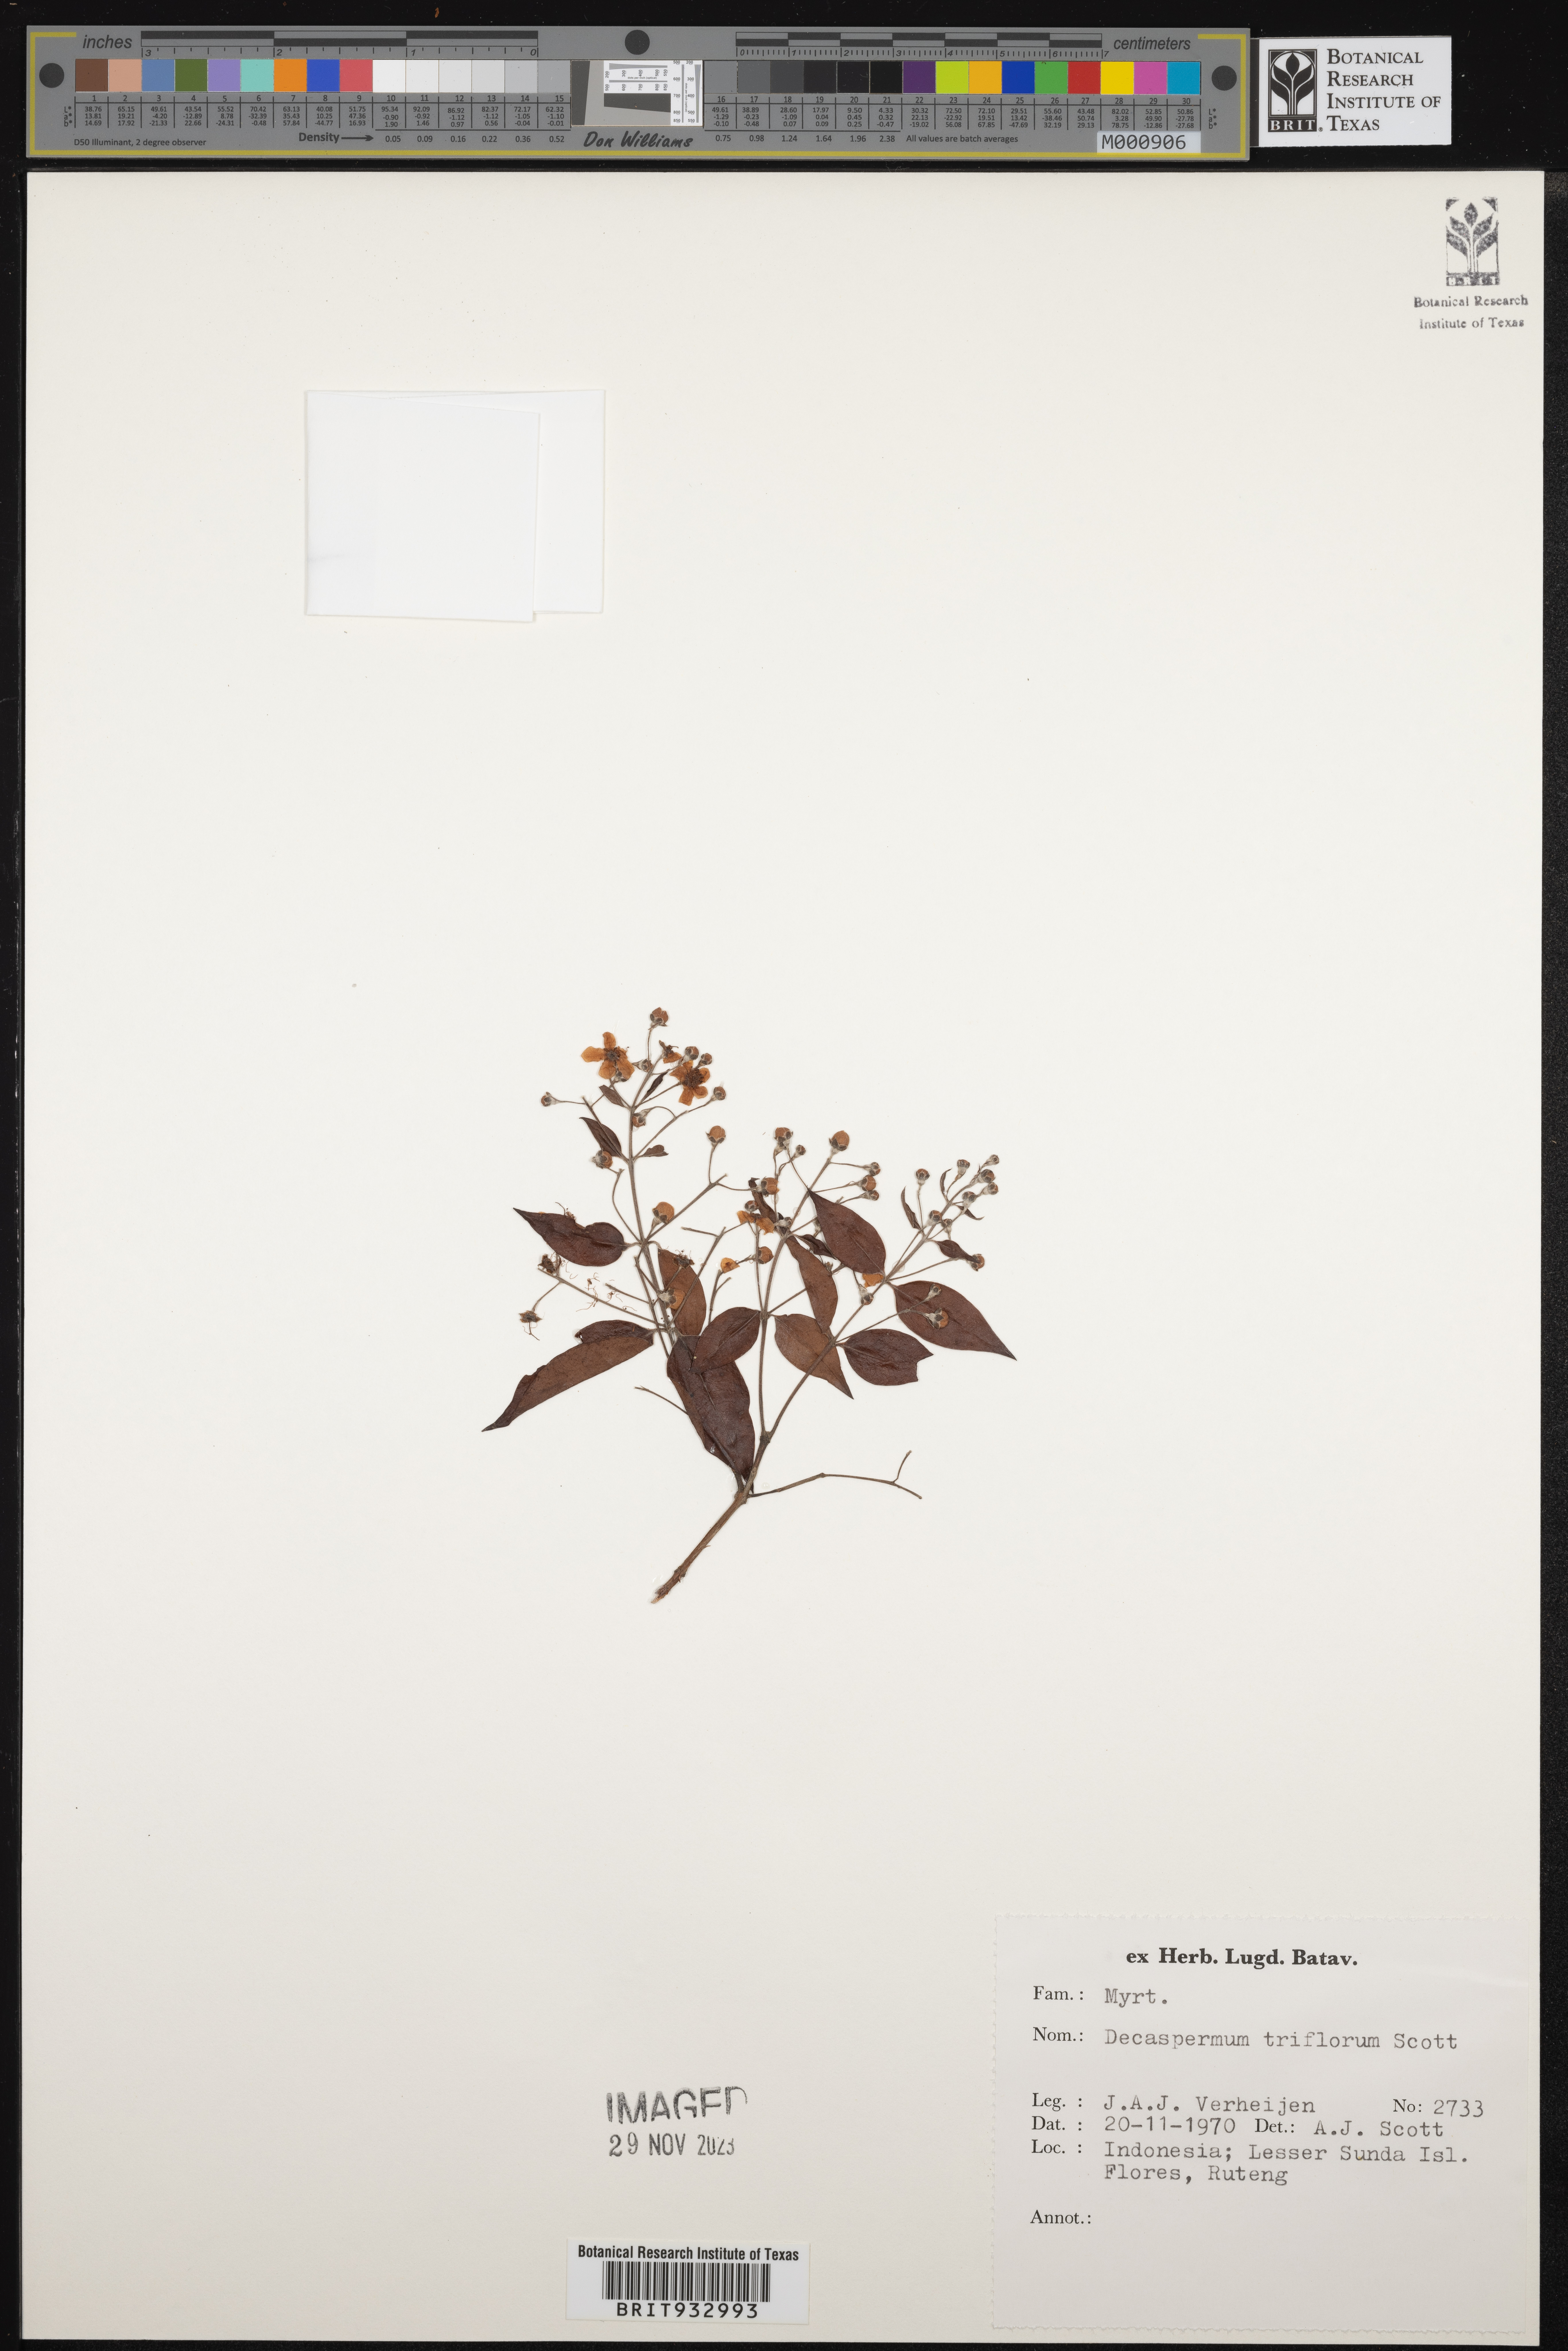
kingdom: Plantae
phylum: Tracheophyta
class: Magnoliopsida
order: Myrtales
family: Myrtaceae
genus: Decaspermum
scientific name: Decaspermum
